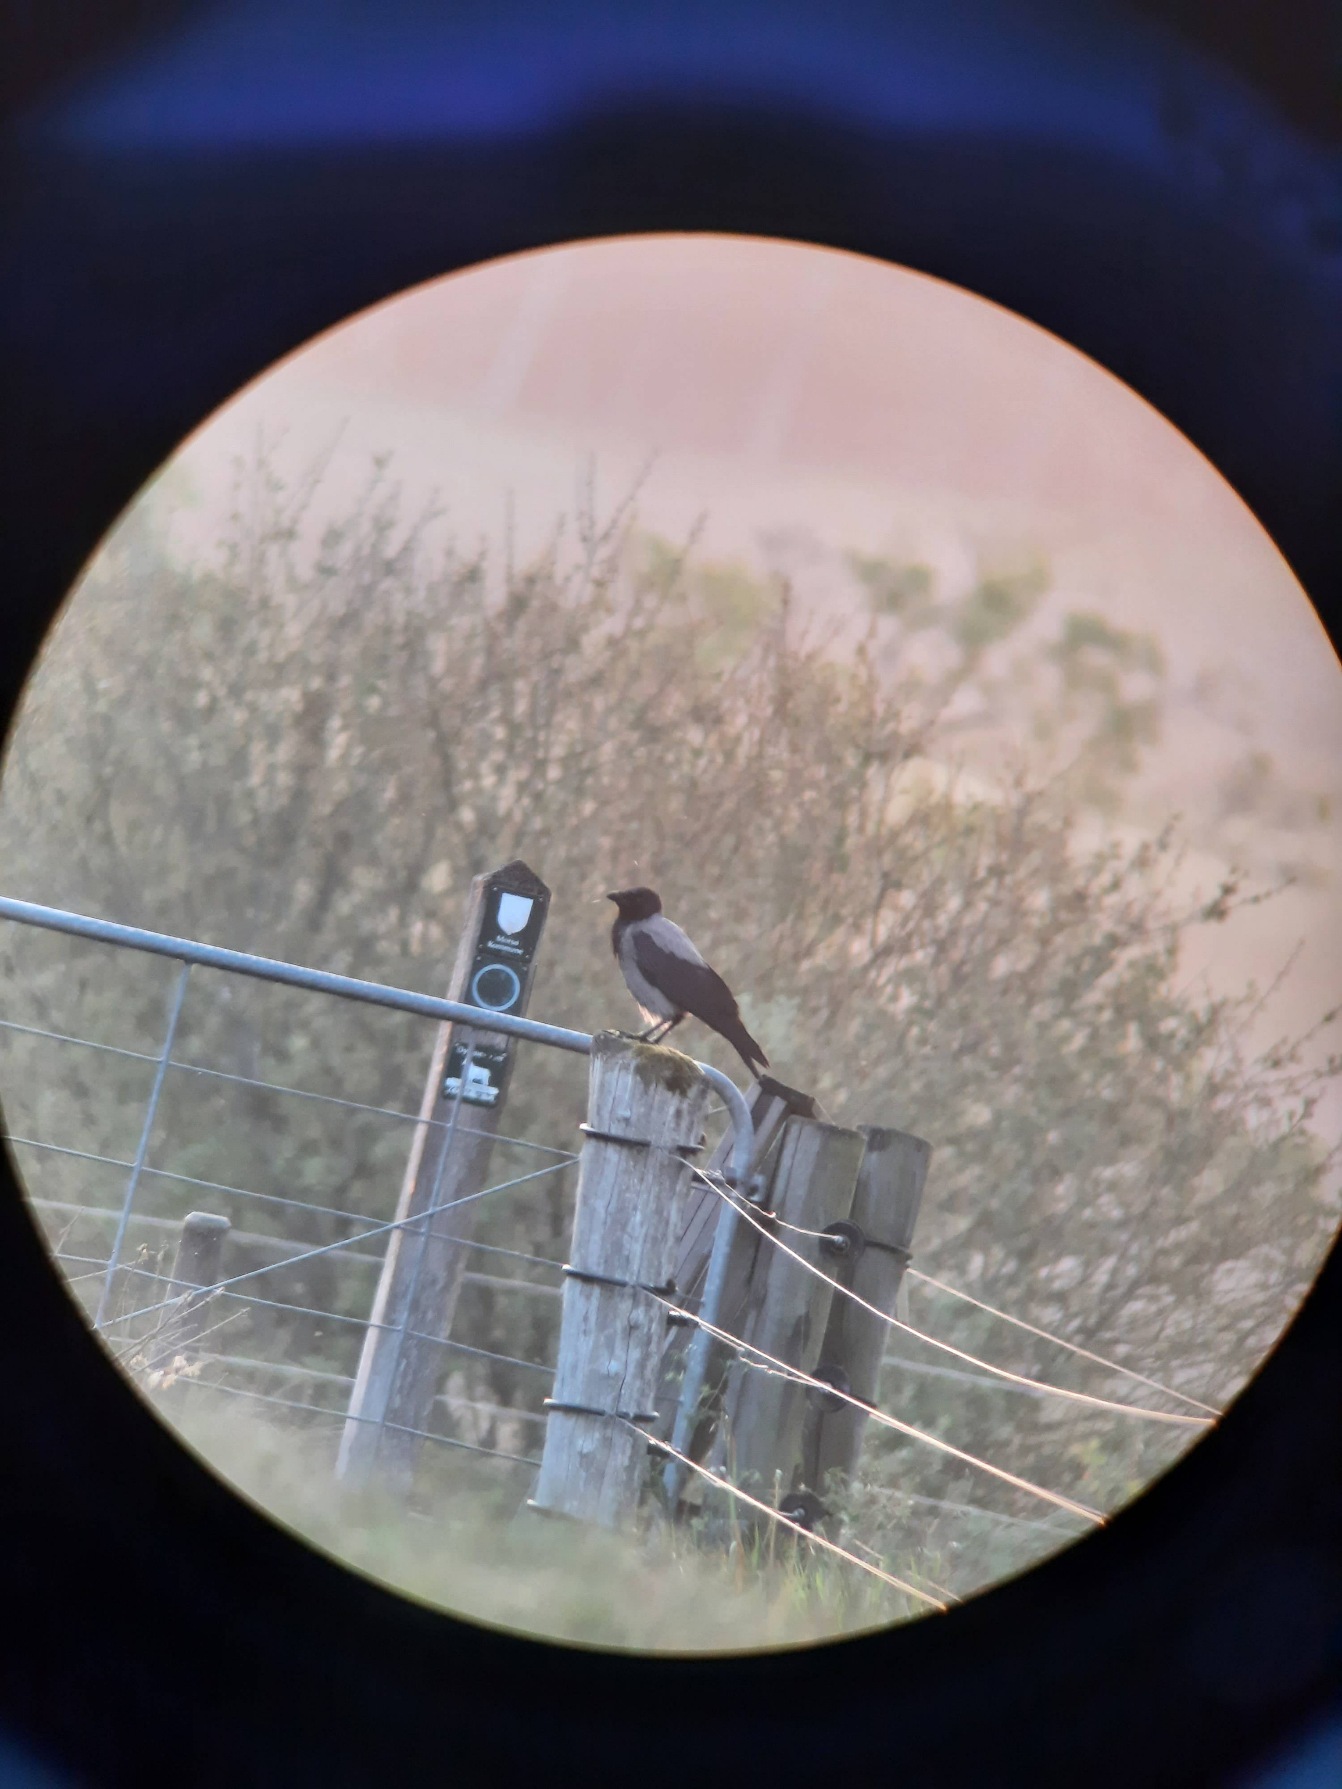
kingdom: Animalia
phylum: Chordata
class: Aves
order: Passeriformes
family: Corvidae
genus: Corvus
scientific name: Corvus cornix
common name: Gråkrage
